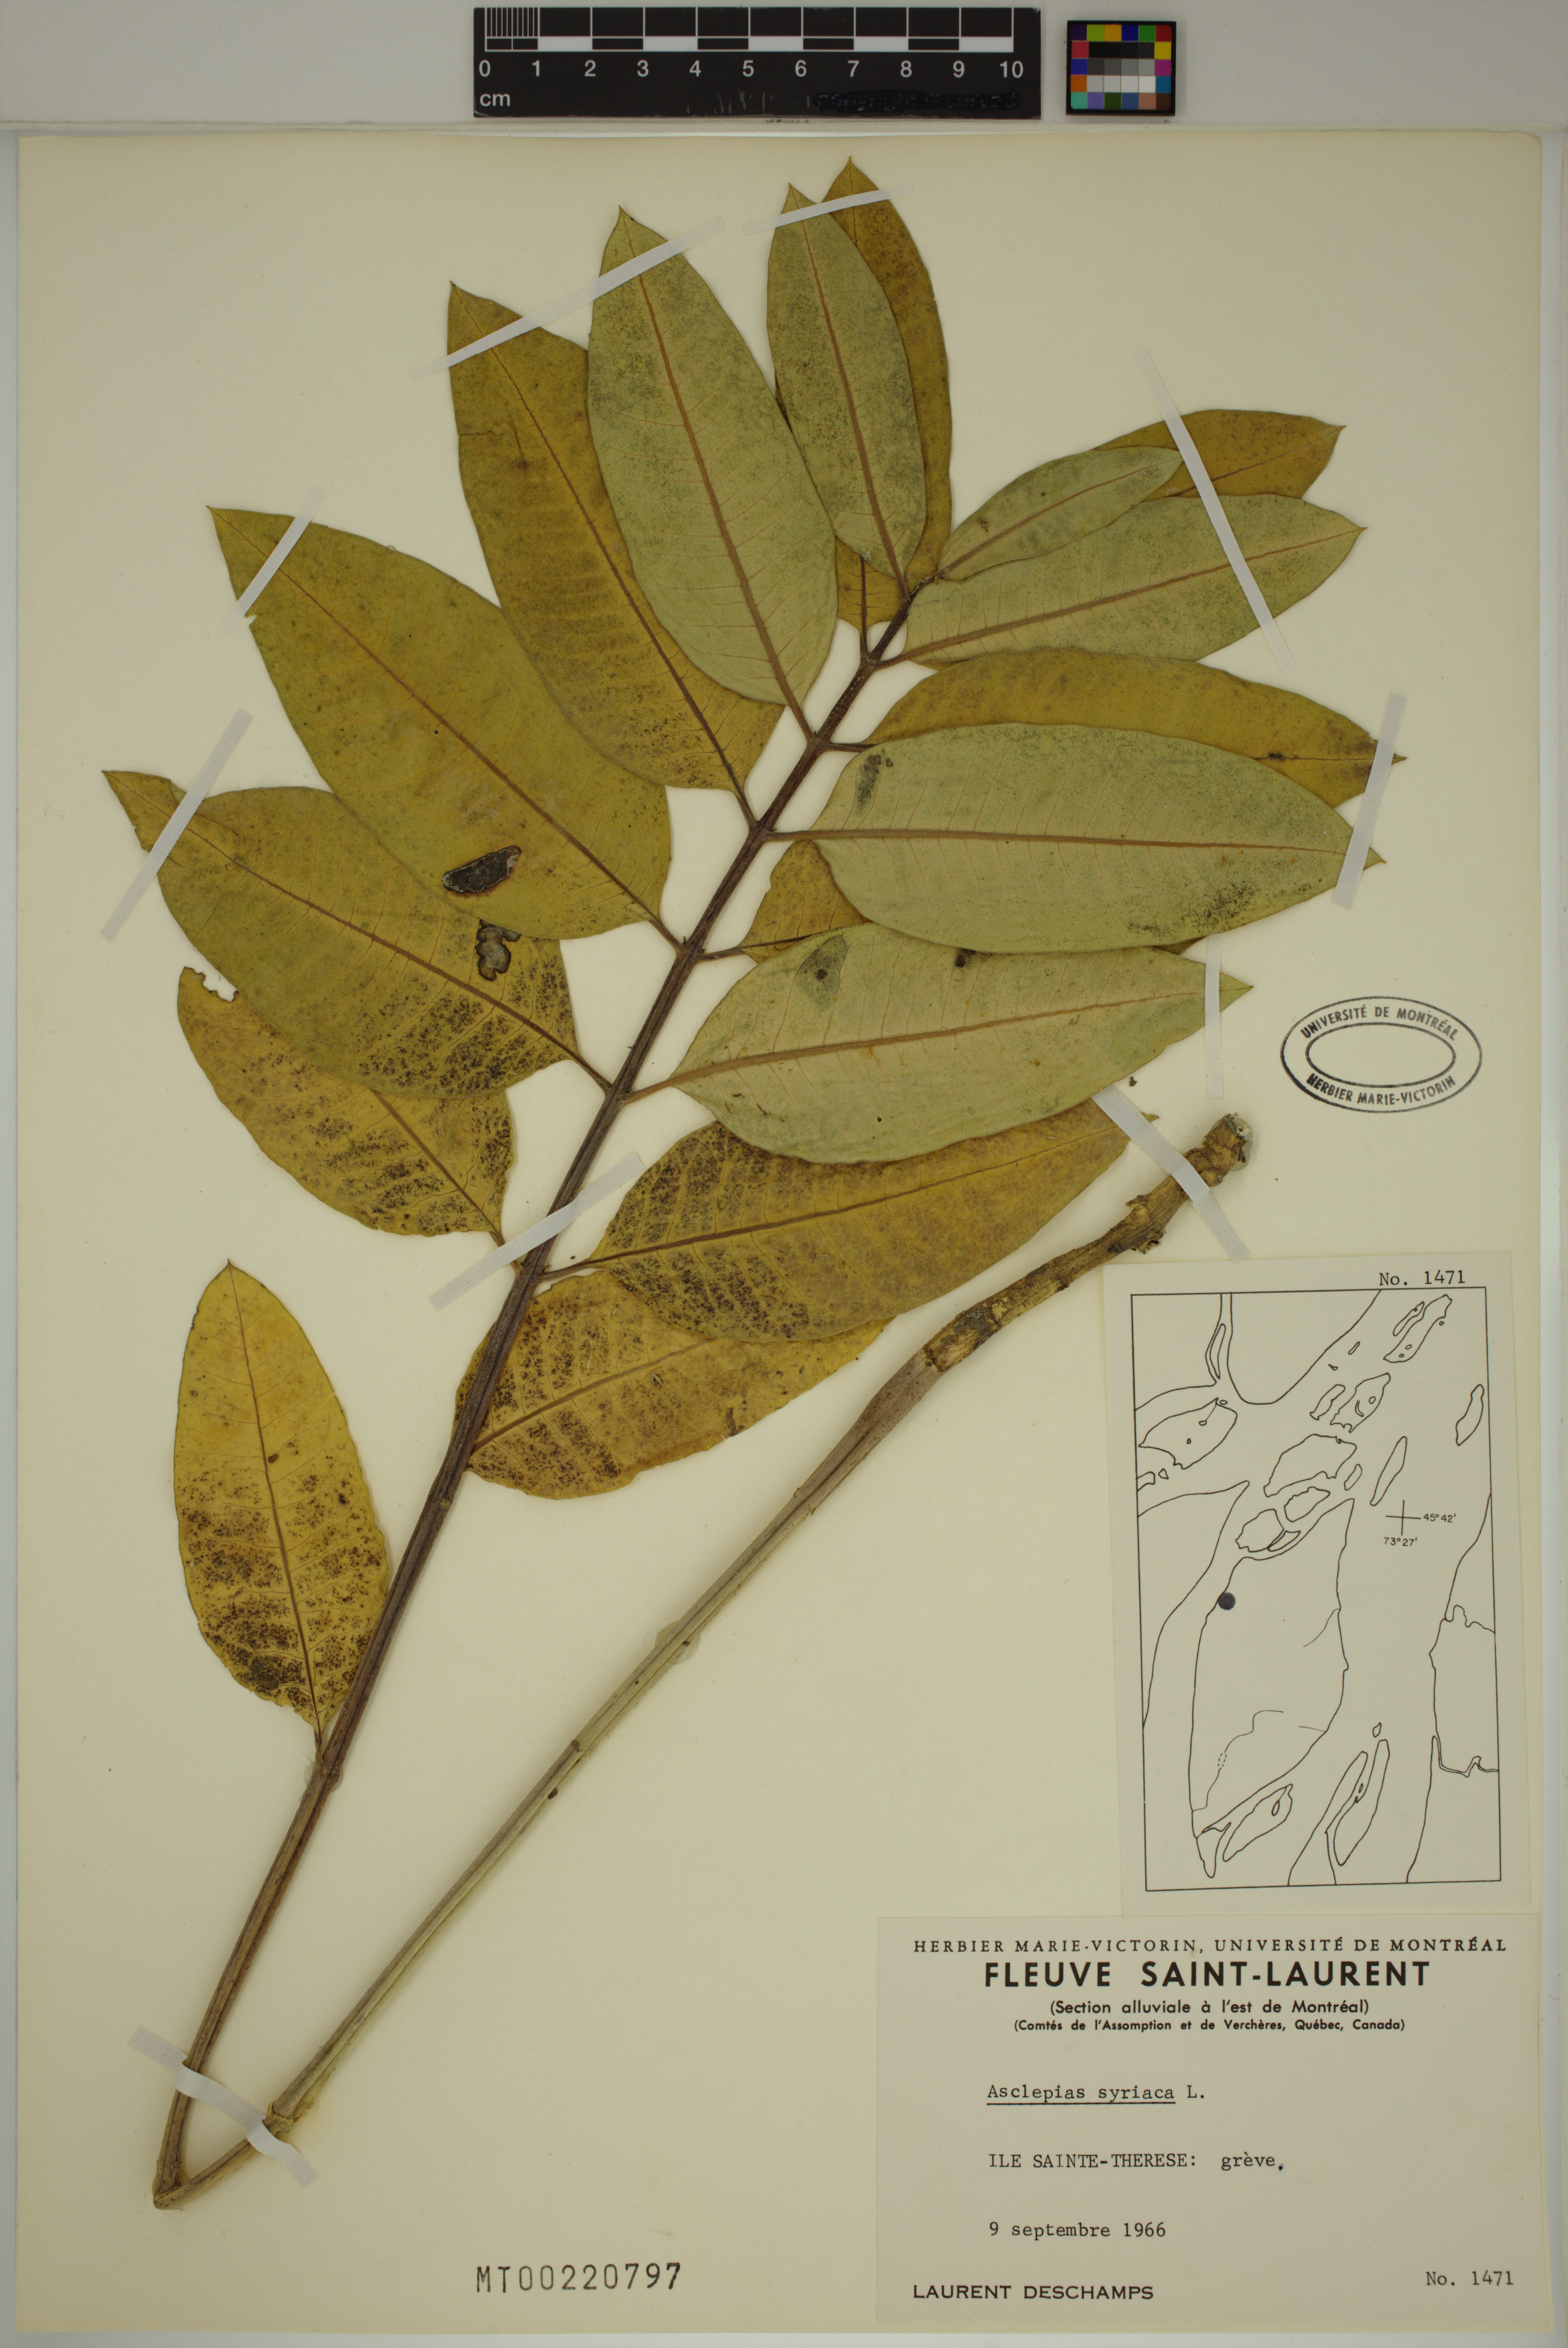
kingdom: Plantae
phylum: Tracheophyta
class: Magnoliopsida
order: Gentianales
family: Apocynaceae
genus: Asclepias
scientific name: Asclepias syriaca
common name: Common milkweed
